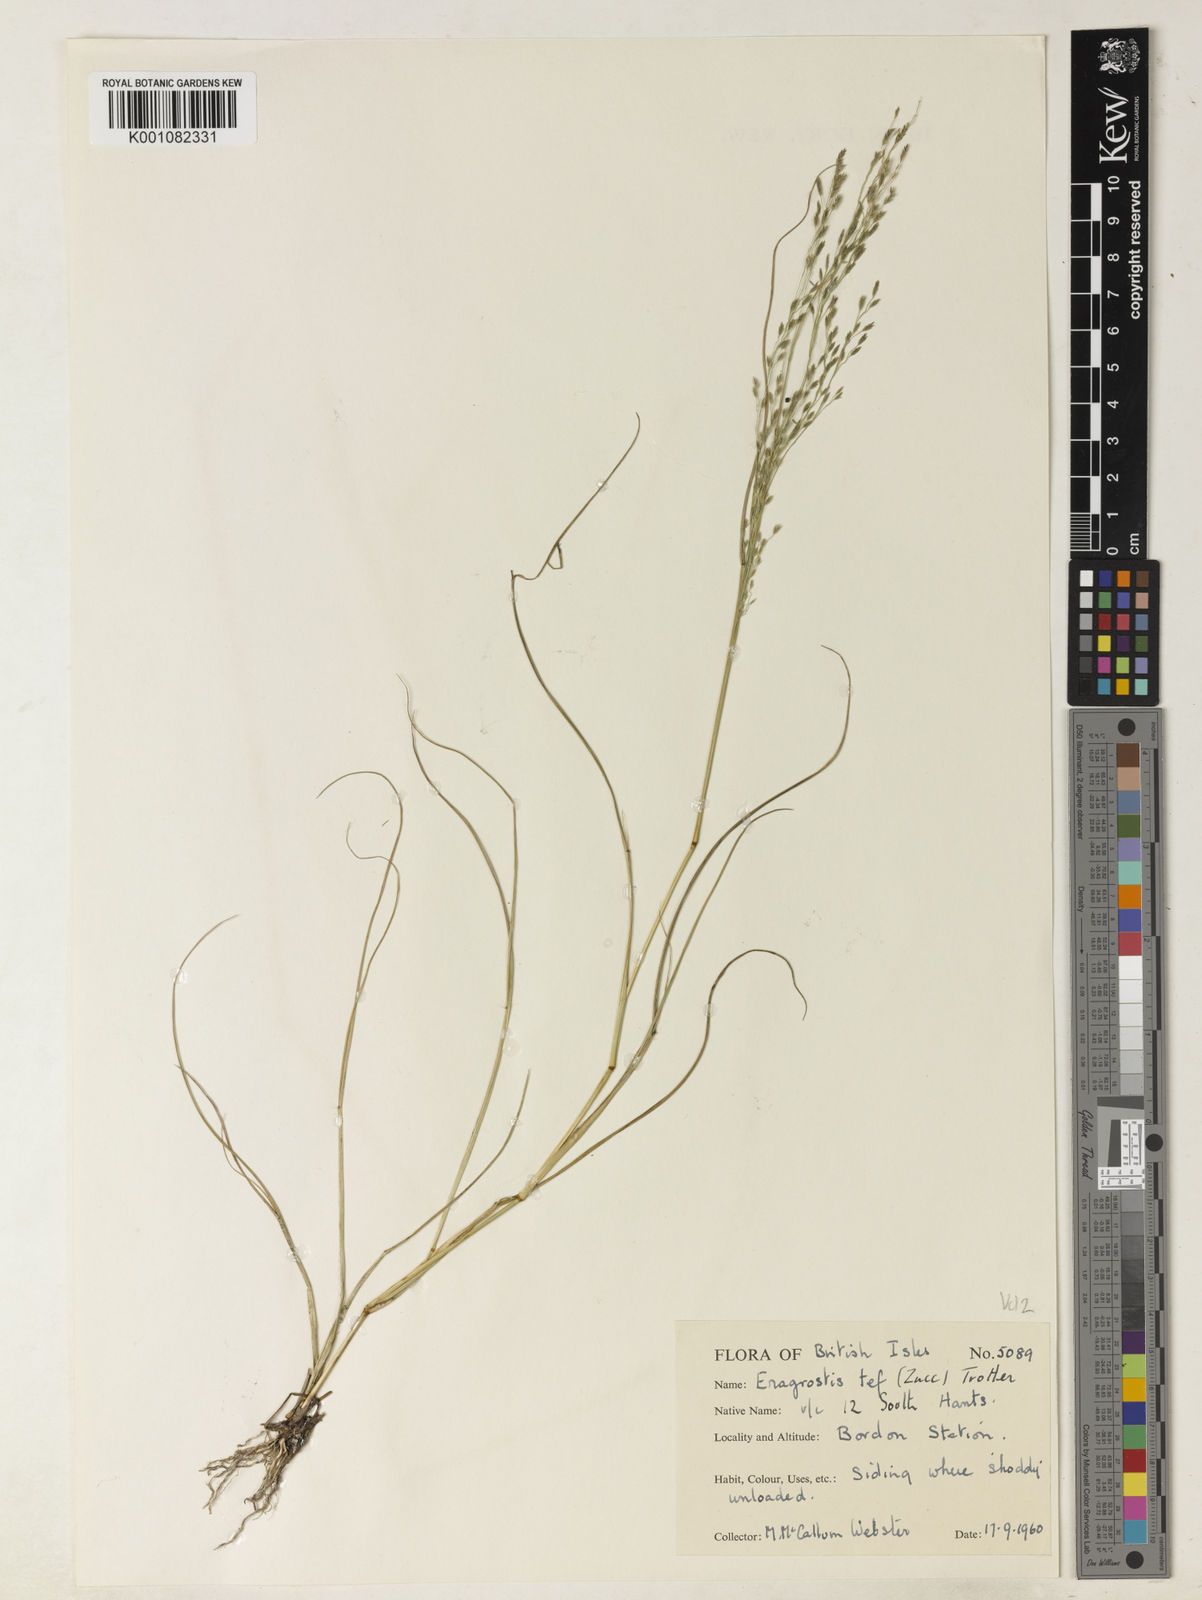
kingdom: Plantae
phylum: Tracheophyta
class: Liliopsida
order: Poales
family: Poaceae
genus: Eragrostis
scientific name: Eragrostis tef
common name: Teff
